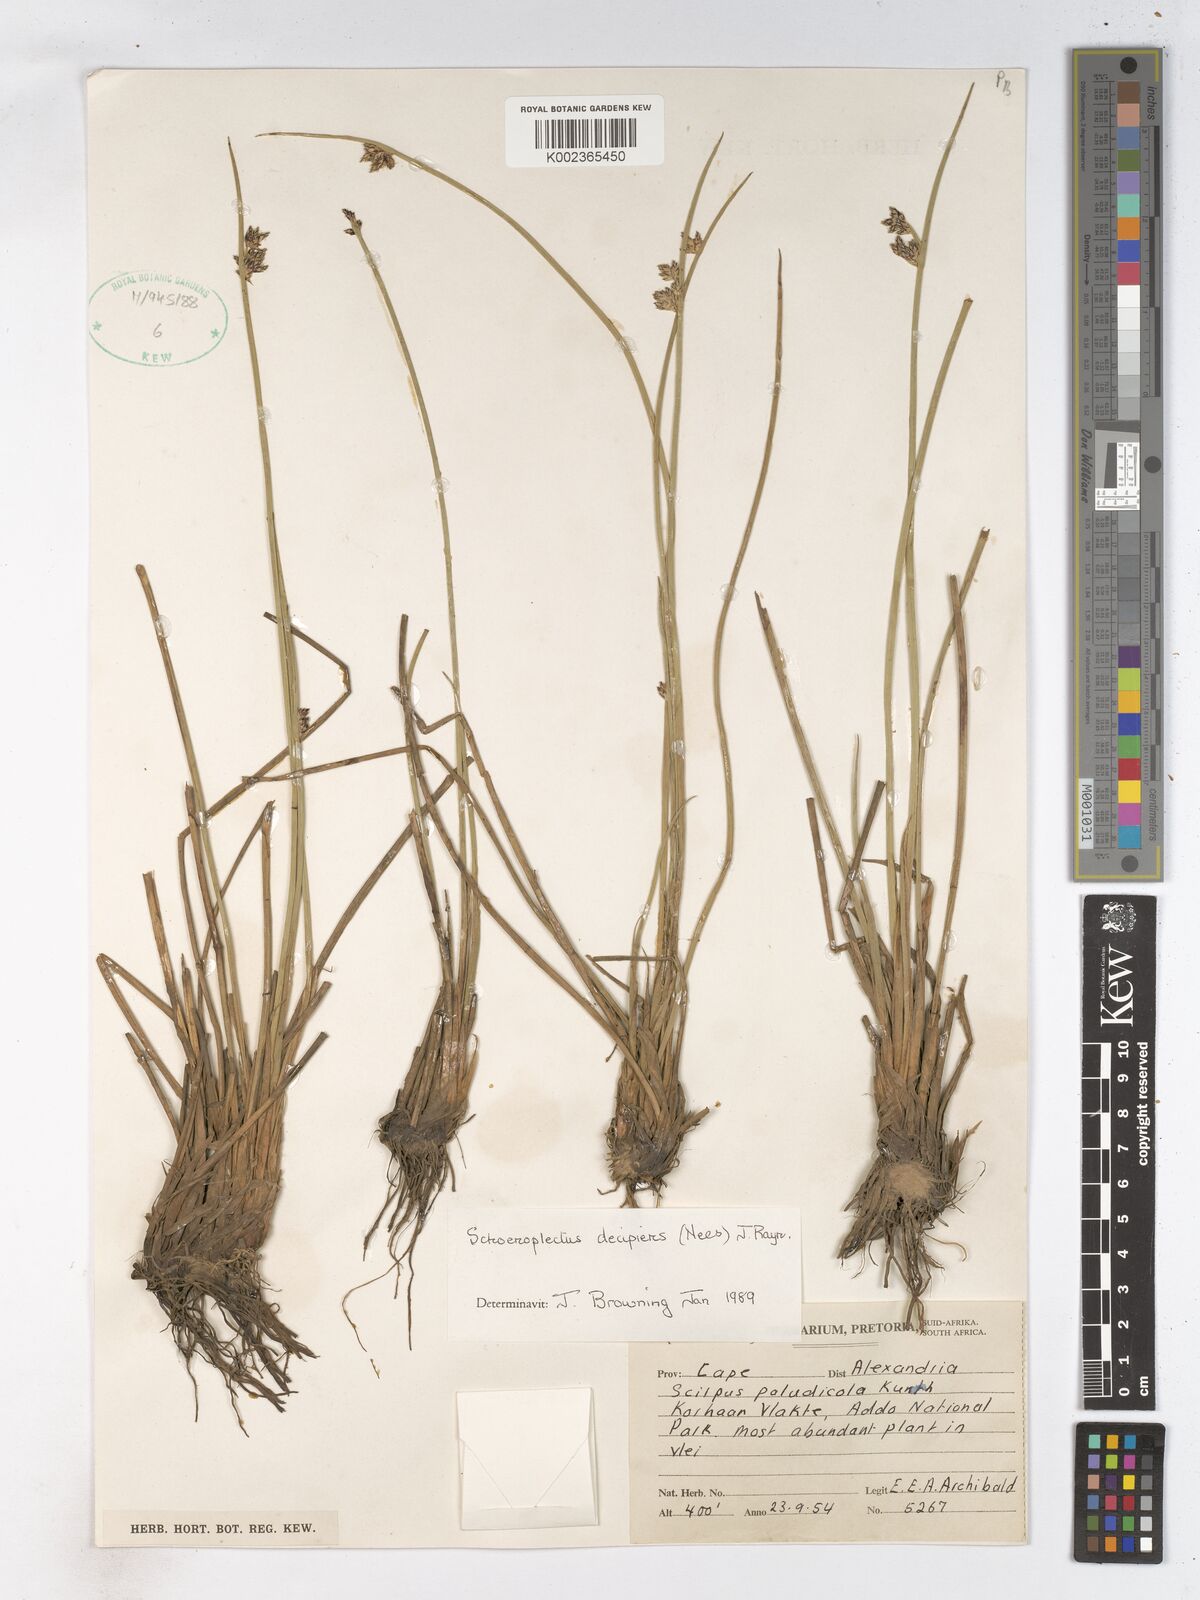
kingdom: Plantae
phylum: Tracheophyta
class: Liliopsida
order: Poales
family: Cyperaceae
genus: Schoenoplectiella
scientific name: Schoenoplectiella paludicola
